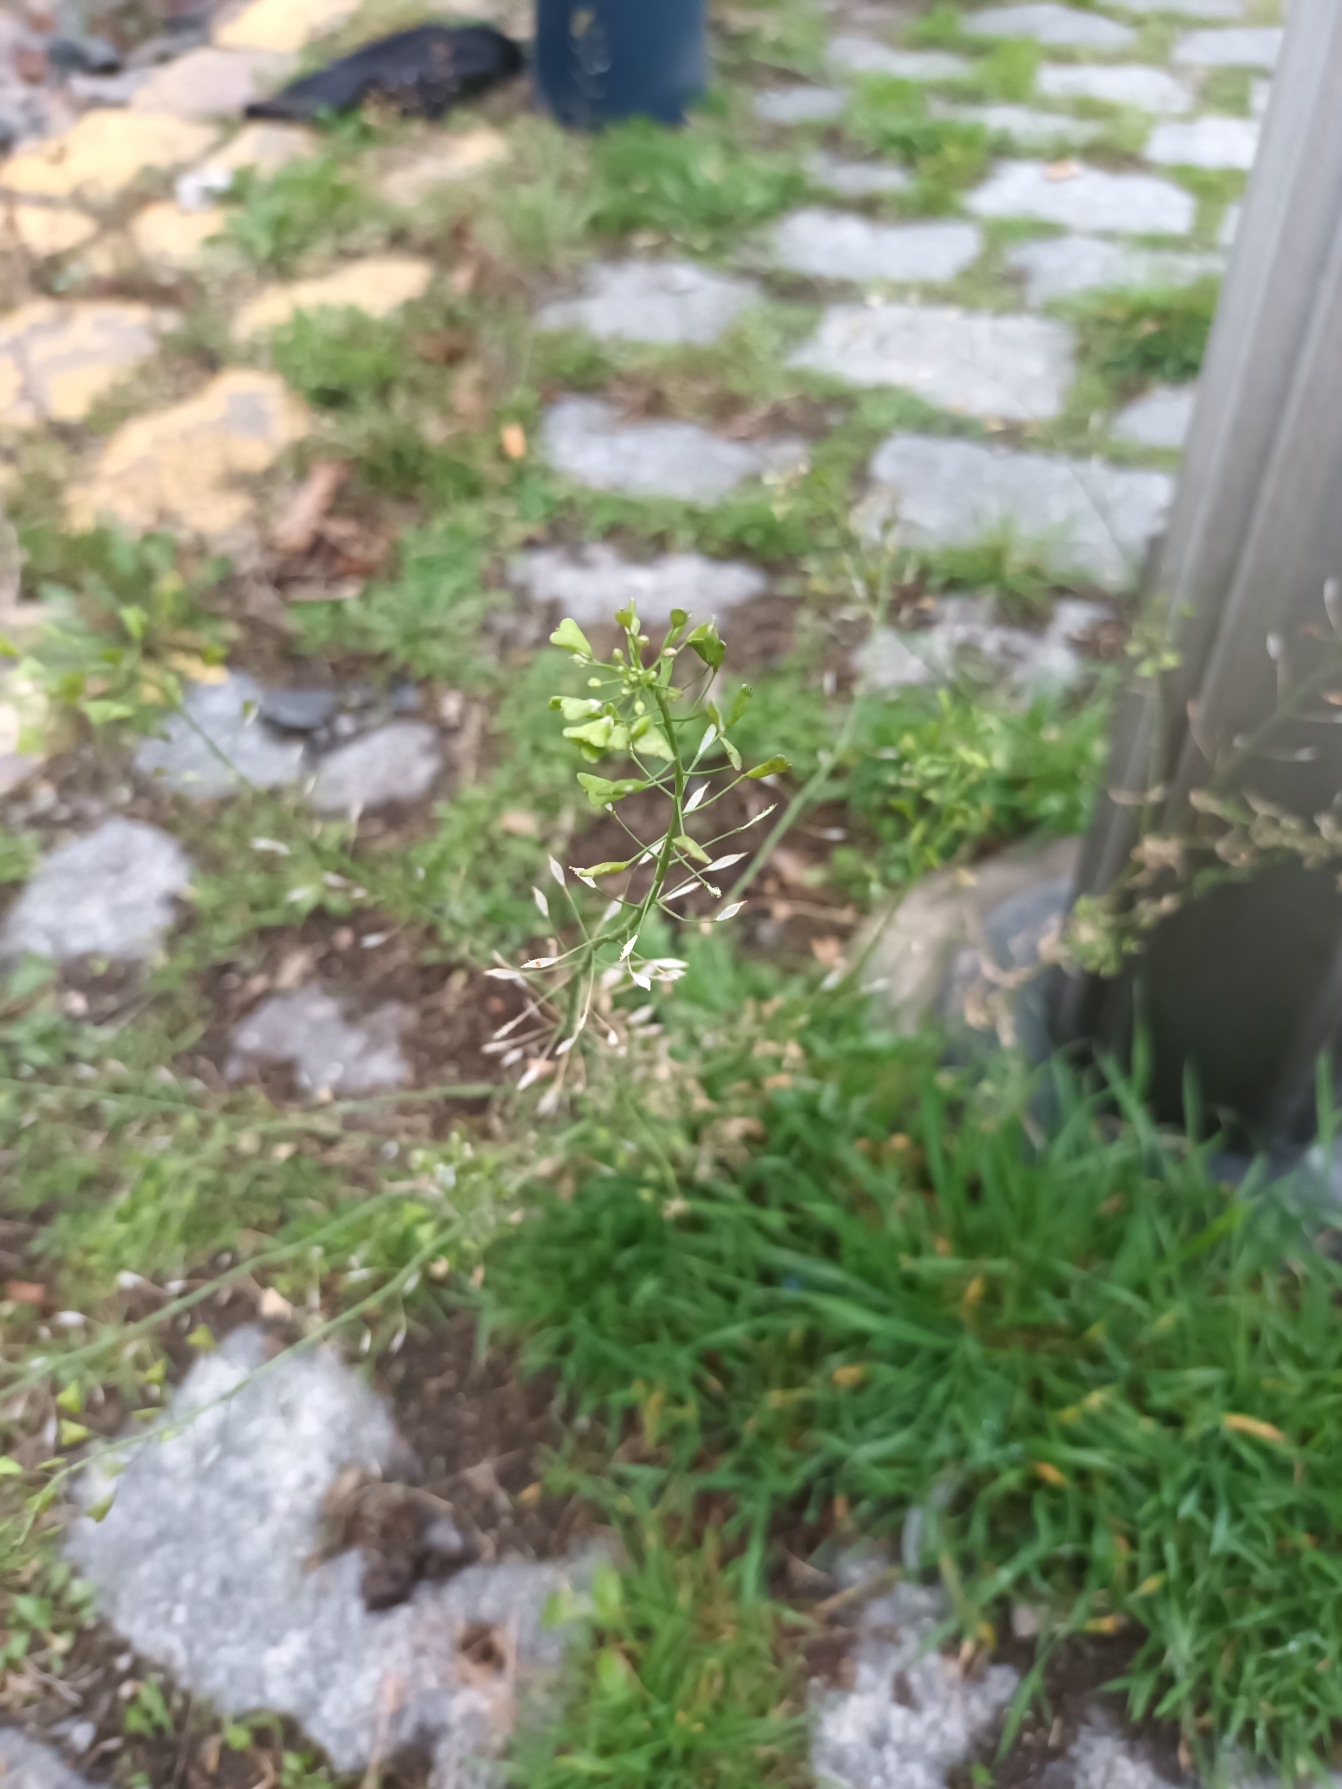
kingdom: Plantae
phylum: Tracheophyta
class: Magnoliopsida
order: Brassicales
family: Brassicaceae
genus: Capsella
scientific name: Capsella bursa-pastoris
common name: Hyrdetaske
